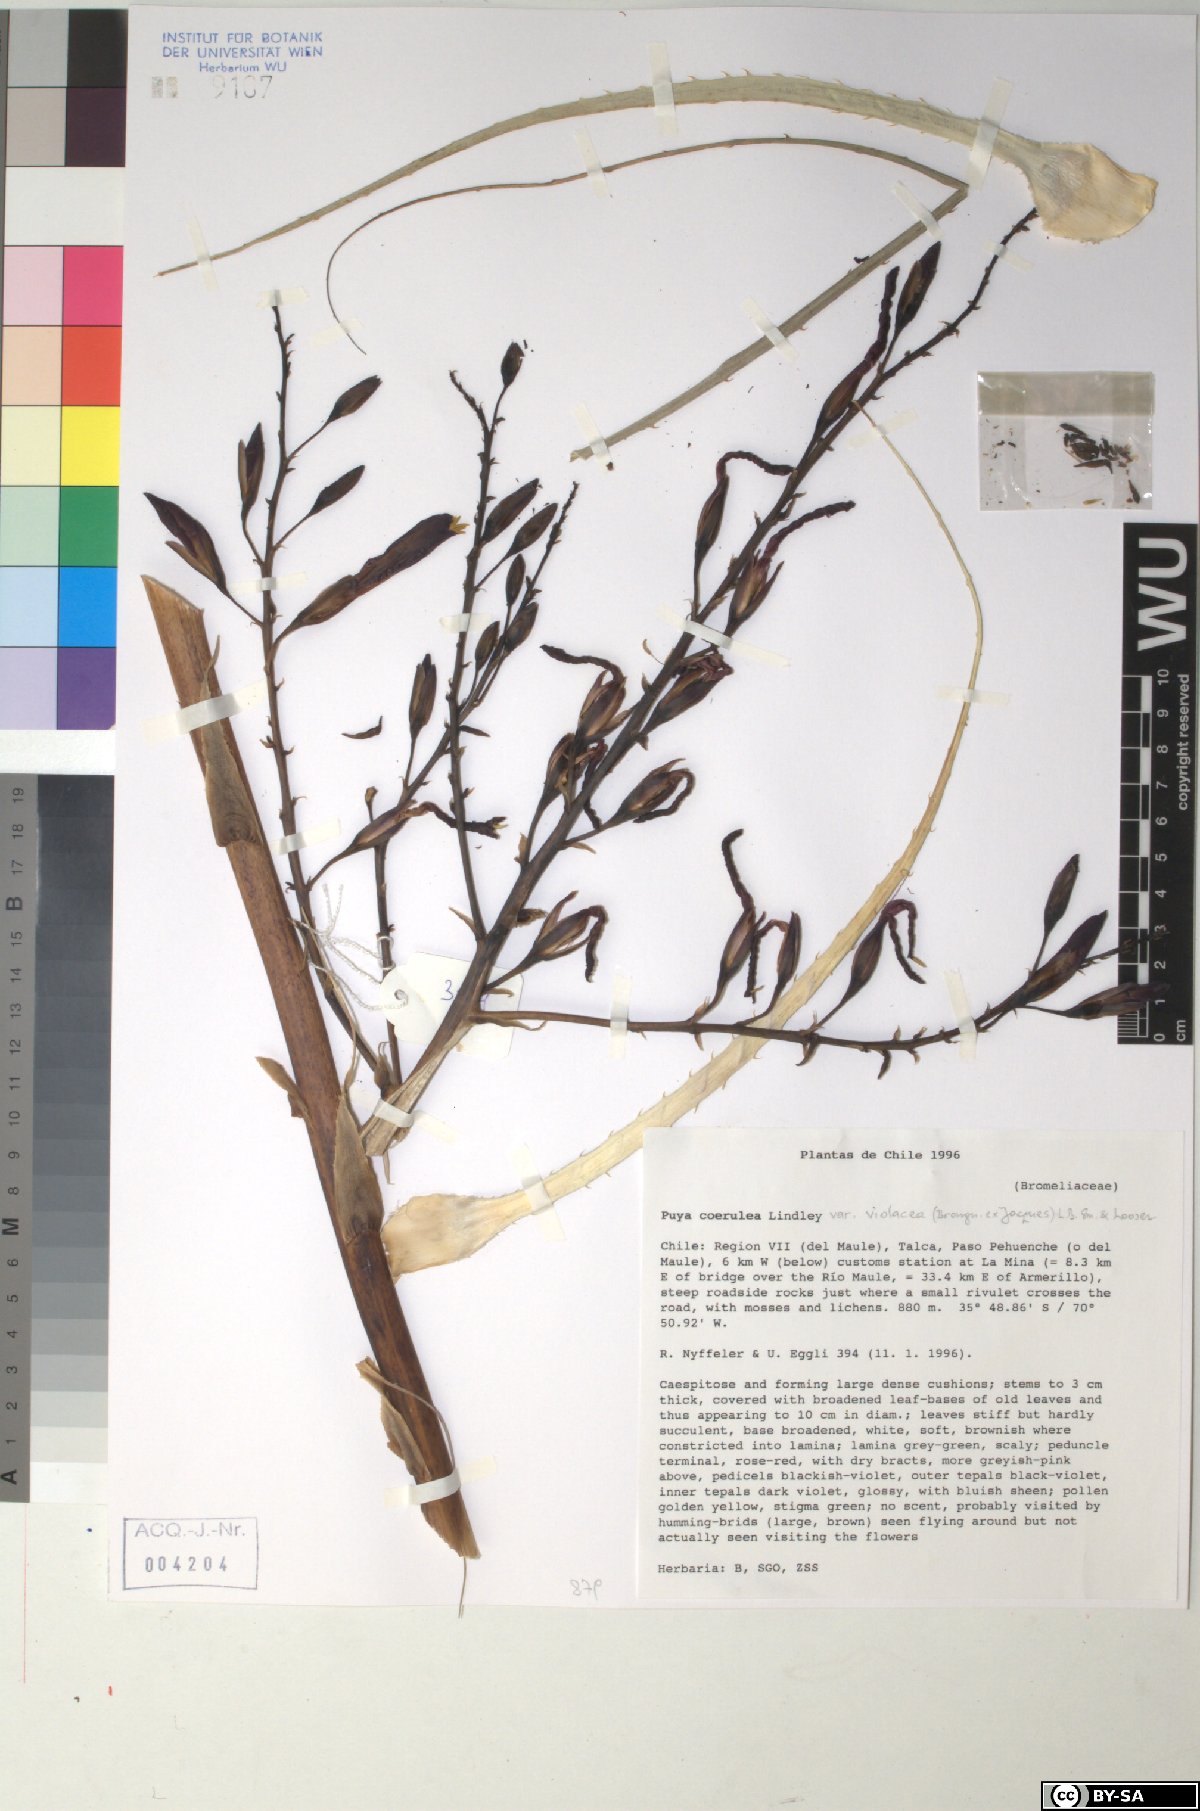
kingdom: Plantae
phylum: Tracheophyta
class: Liliopsida
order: Poales
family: Bromeliaceae
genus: Puya
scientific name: Puya coerulea
